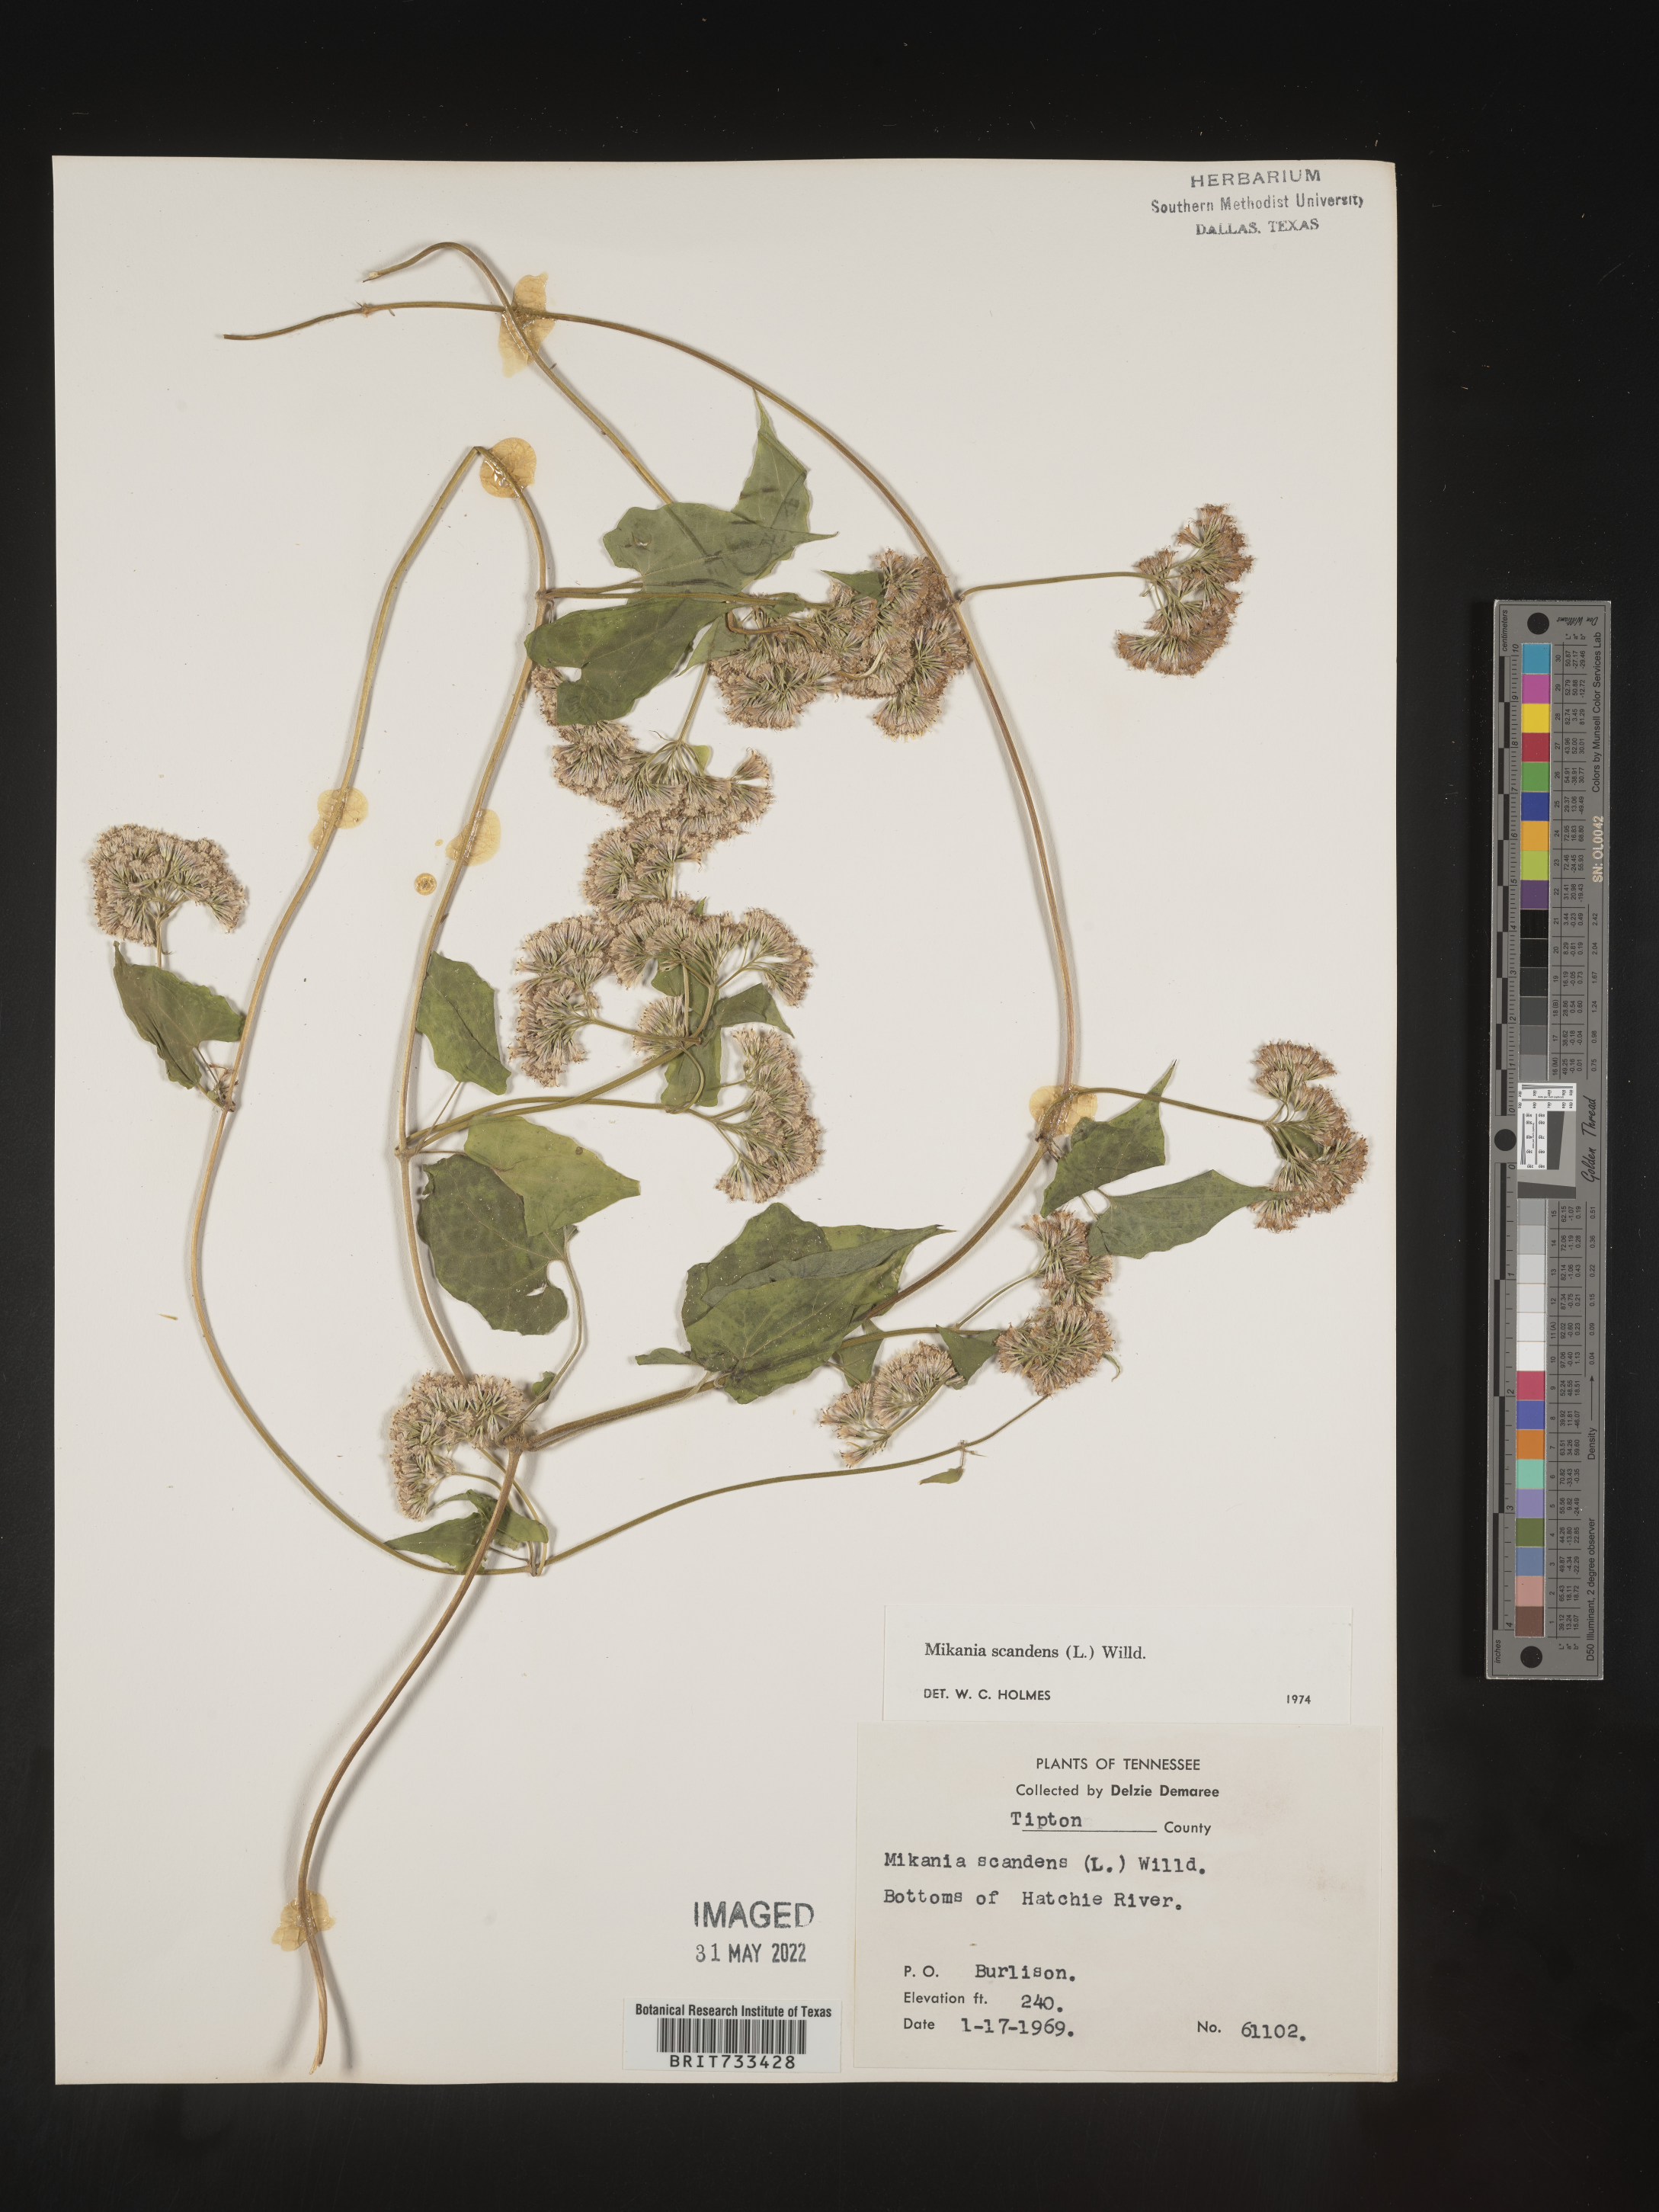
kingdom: Plantae
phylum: Tracheophyta
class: Magnoliopsida
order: Asterales
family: Asteraceae
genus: Mikania
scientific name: Mikania scandens
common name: Climbing hempvine
